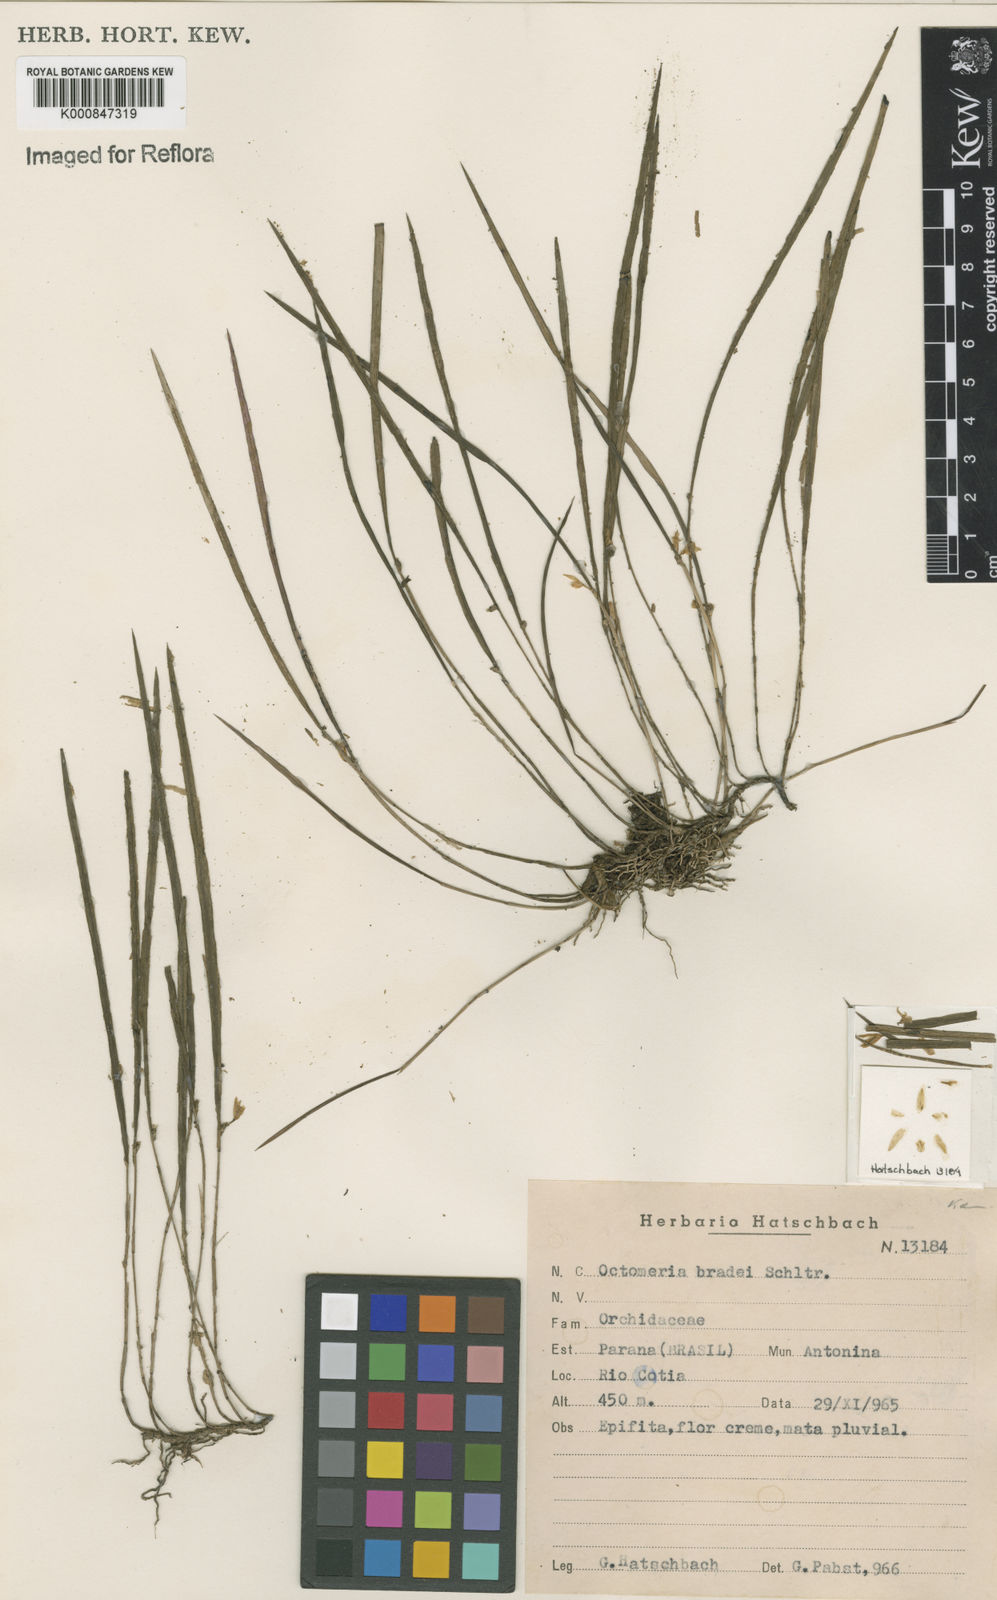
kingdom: Plantae
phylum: Tracheophyta
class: Liliopsida
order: Asparagales
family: Orchidaceae
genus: Octomeria
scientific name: Octomeria bradei
